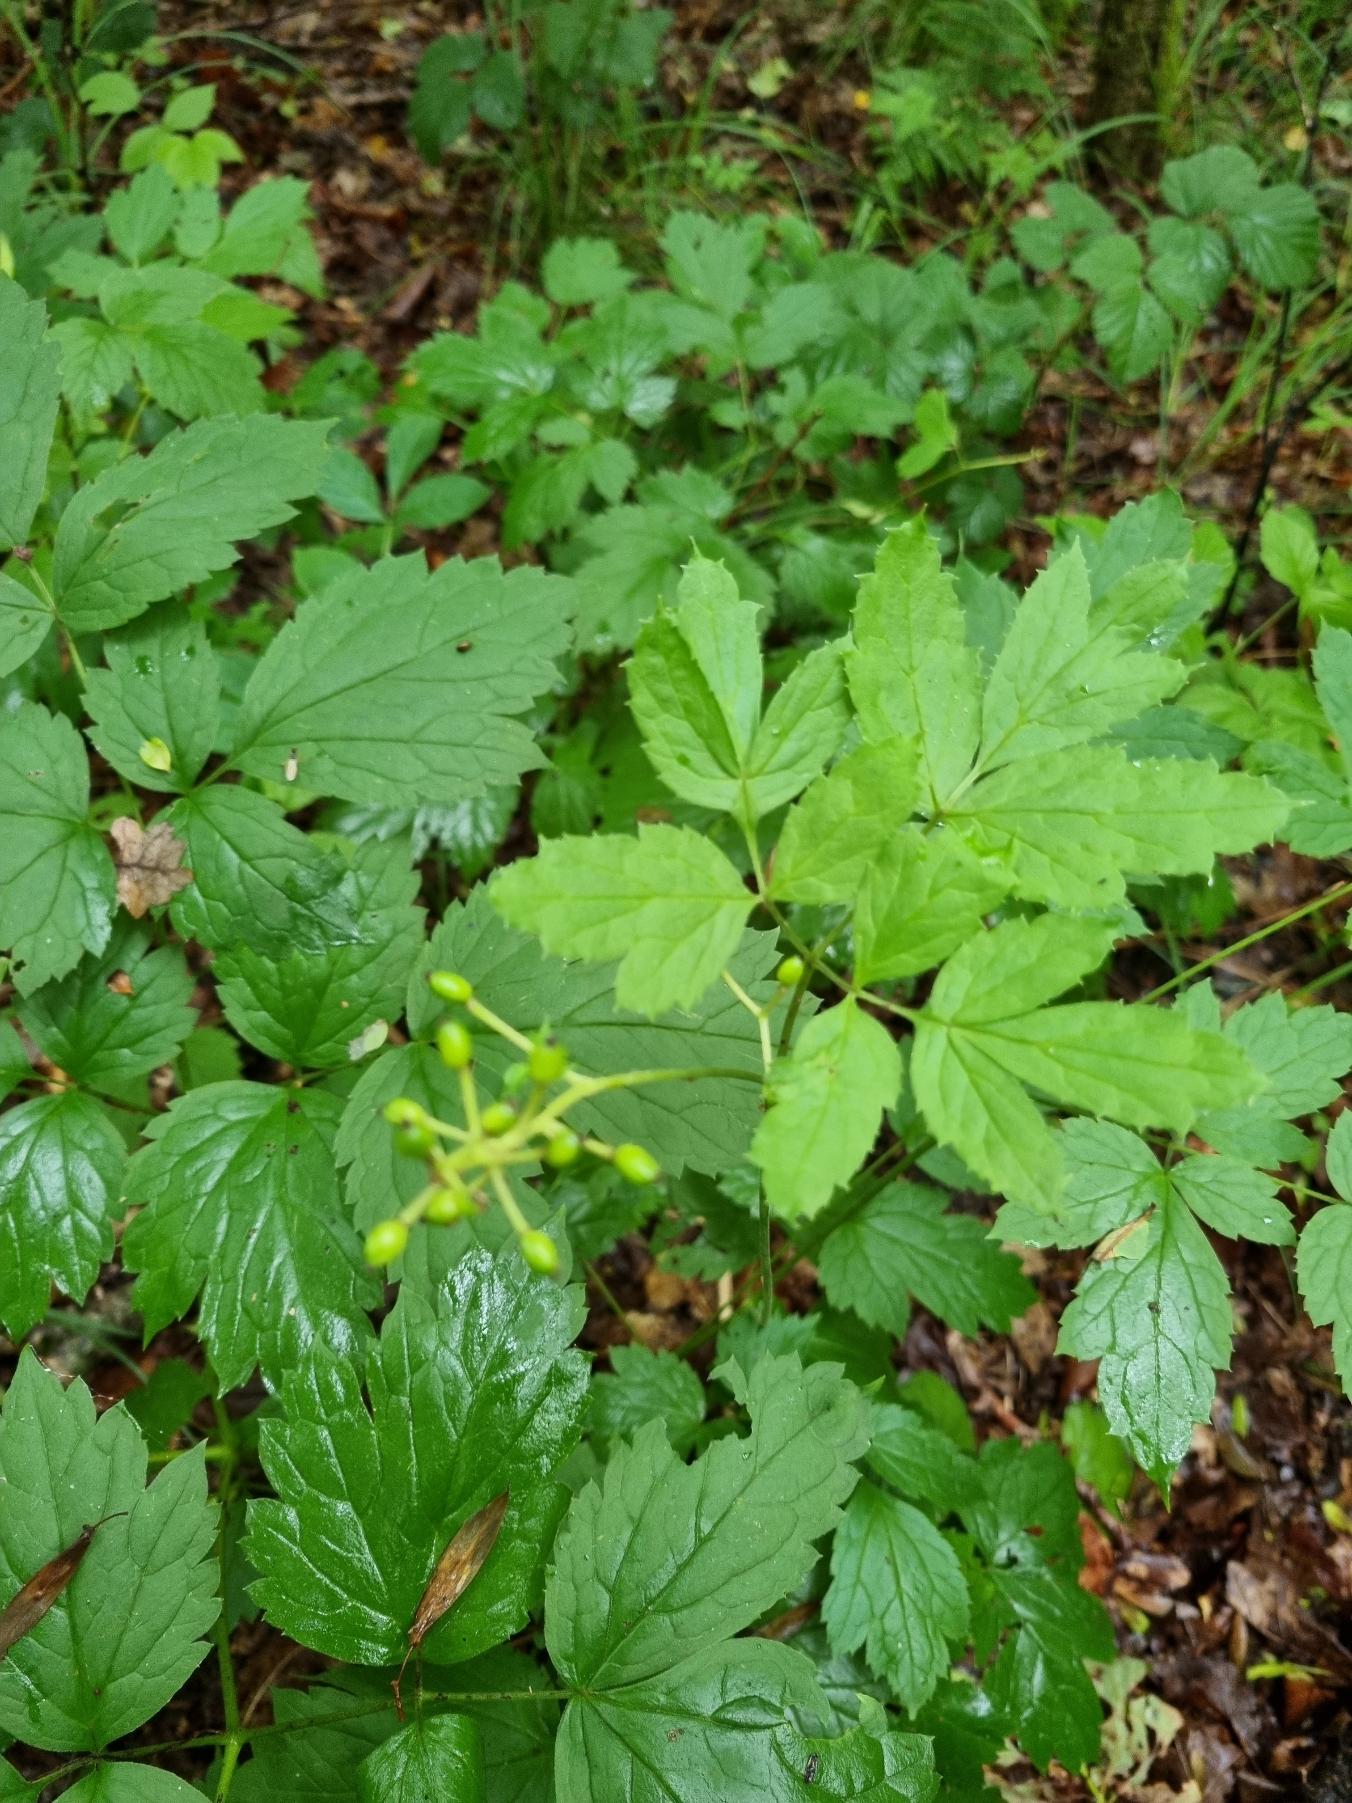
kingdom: Plantae
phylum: Tracheophyta
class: Magnoliopsida
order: Ranunculales
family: Ranunculaceae
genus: Actaea
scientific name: Actaea spicata
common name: Druemunke
